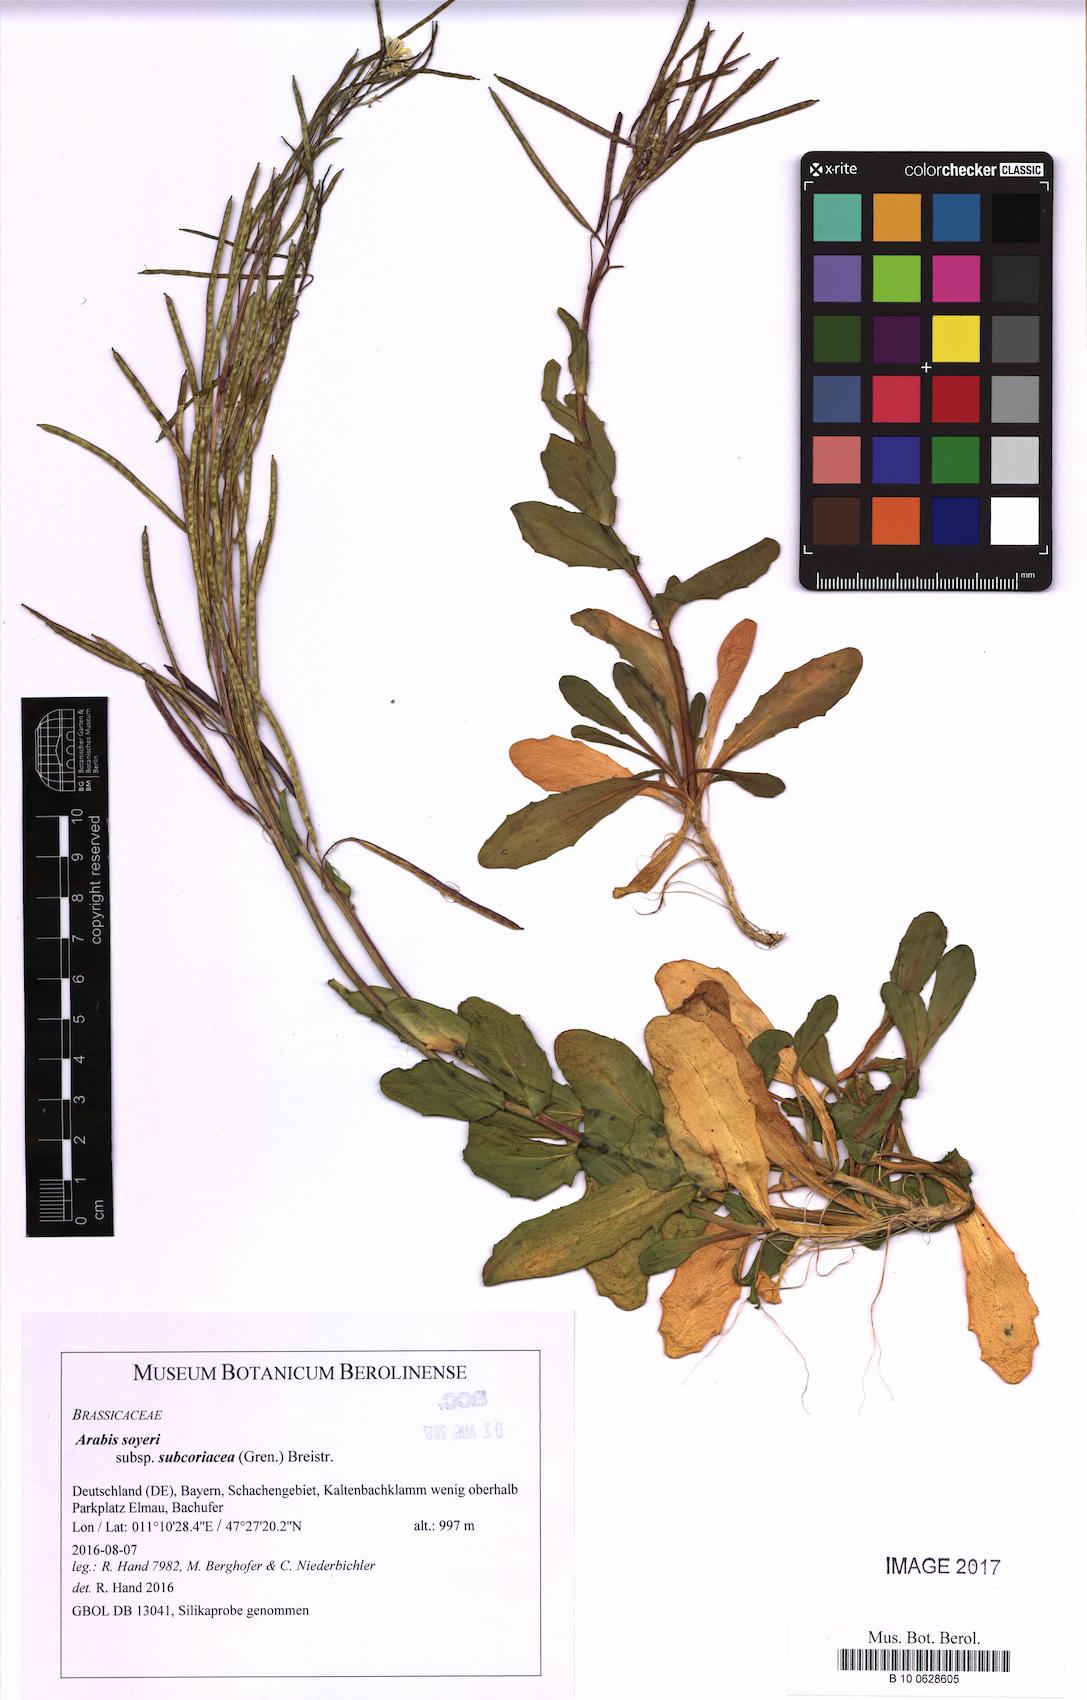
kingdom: Plantae
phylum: Tracheophyta
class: Magnoliopsida
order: Brassicales
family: Brassicaceae
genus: Arabis
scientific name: Arabis soyeri
